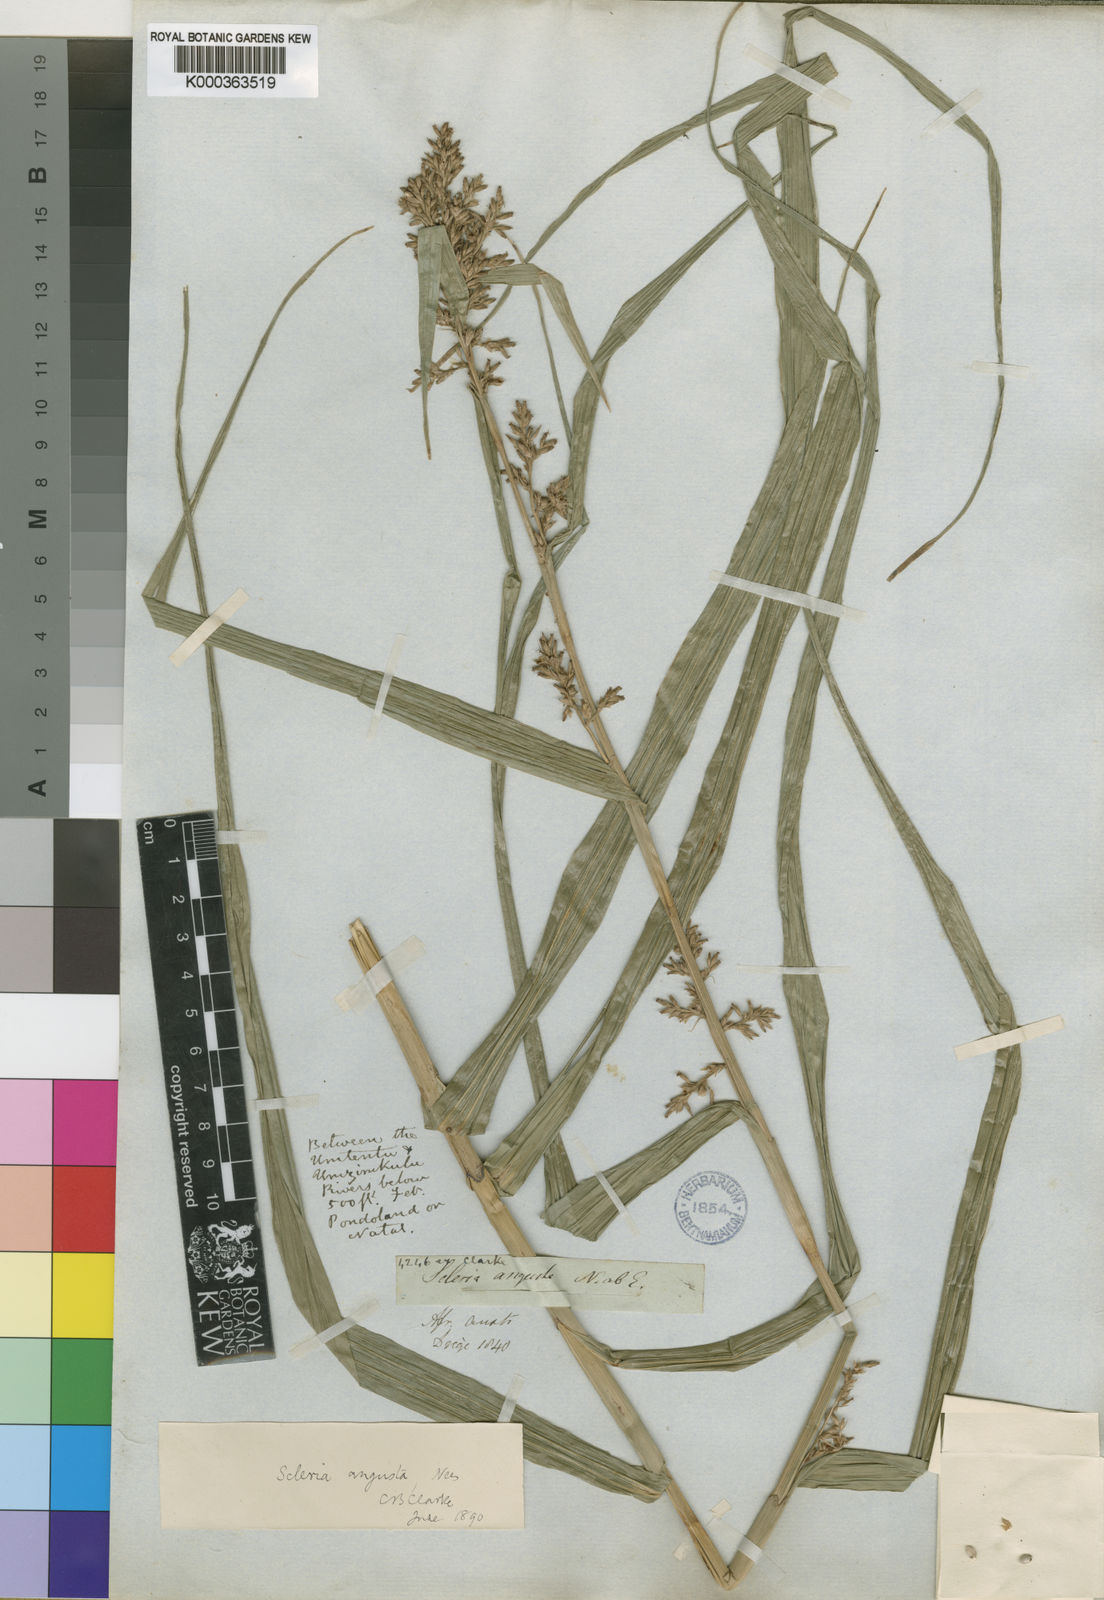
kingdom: Plantae
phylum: Tracheophyta
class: Liliopsida
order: Poales
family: Cyperaceae
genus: Scleria
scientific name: Scleria angusta
